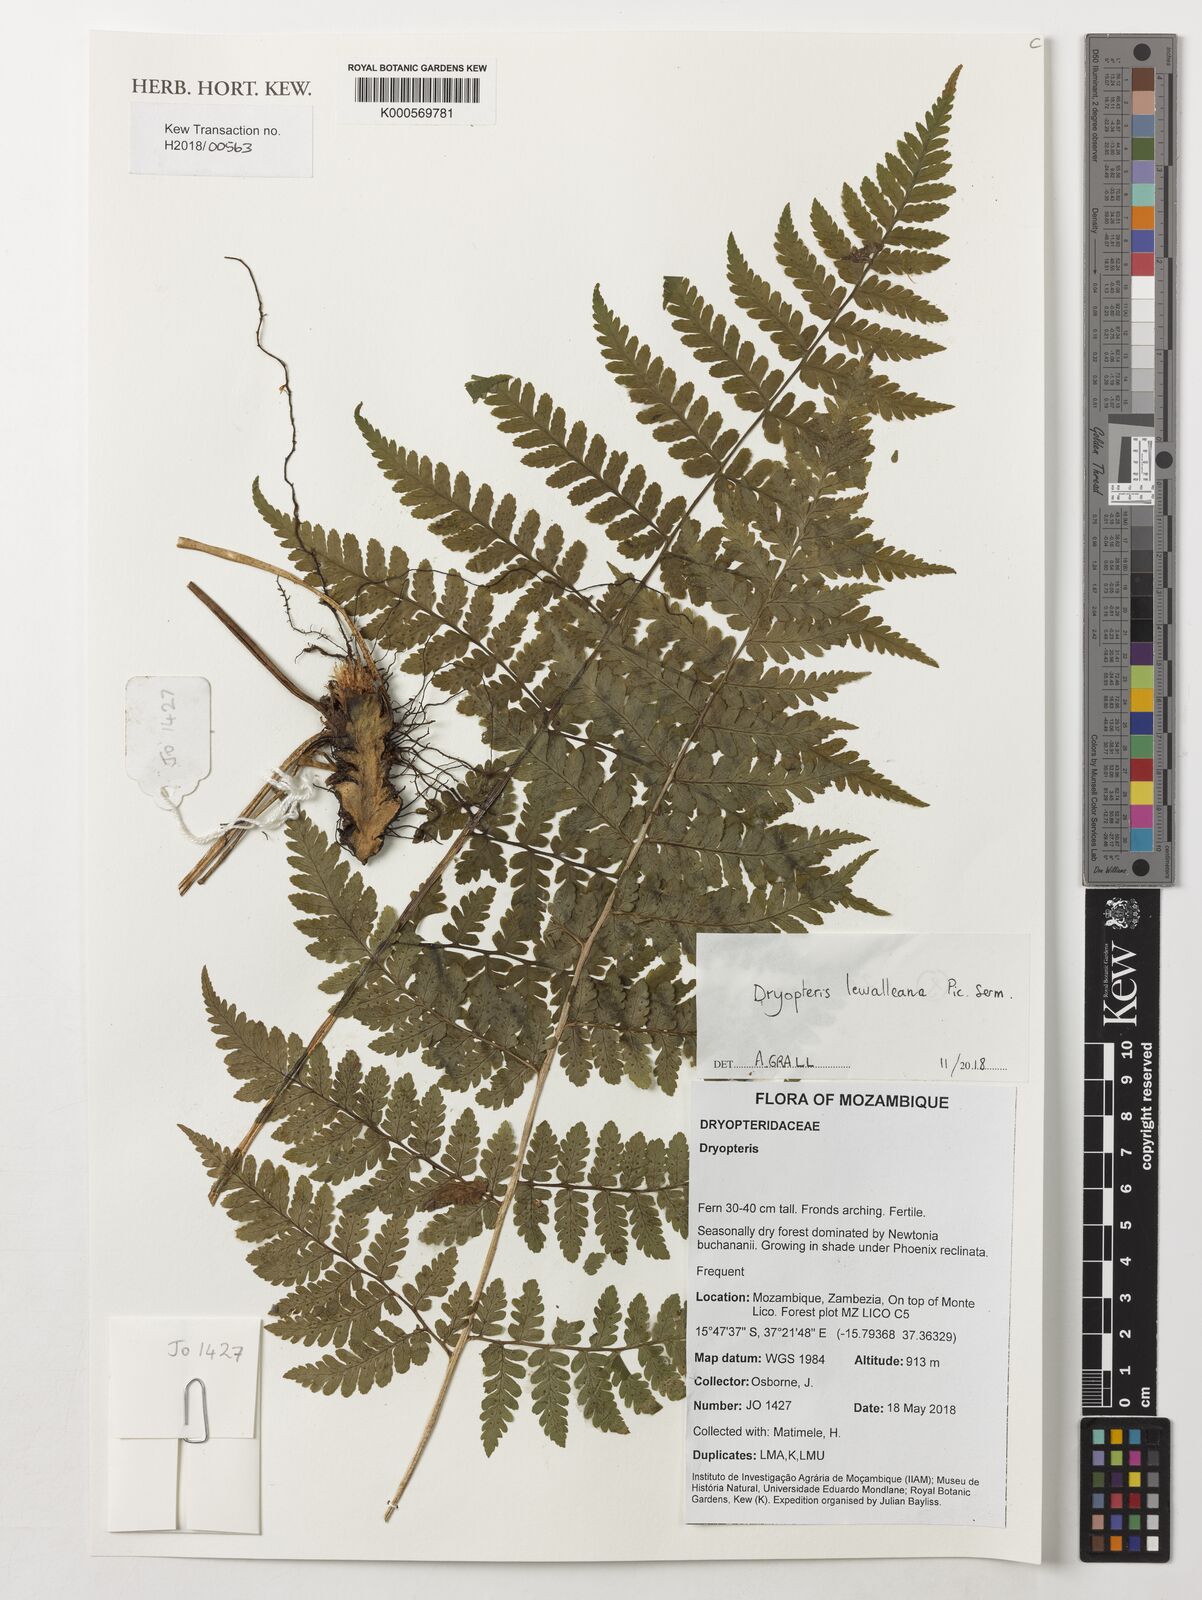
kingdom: Plantae
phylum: Tracheophyta
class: Polypodiopsida
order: Polypodiales
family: Dryopteridaceae
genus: Dryopteris
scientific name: Dryopteris lewalleana
